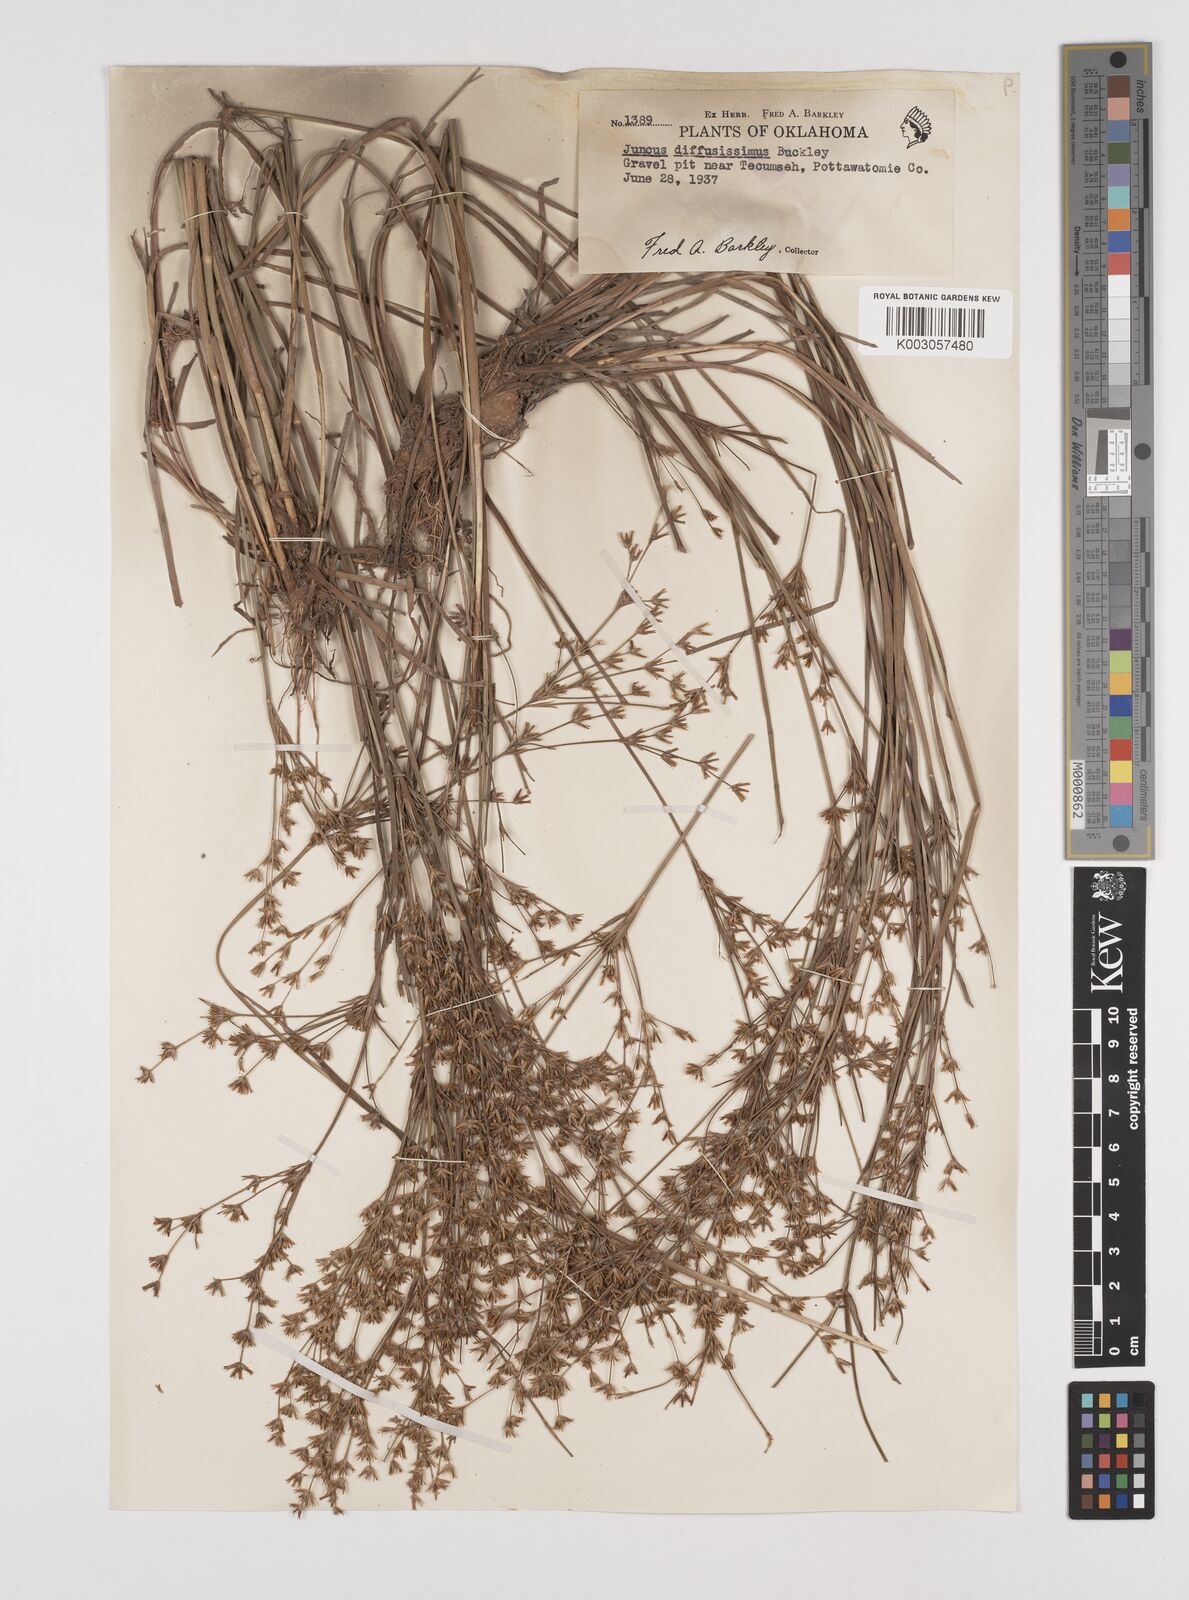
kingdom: Plantae
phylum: Tracheophyta
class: Liliopsida
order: Poales
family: Juncaceae
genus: Juncus
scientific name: Juncus diffusissimus
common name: Slimpod rush
